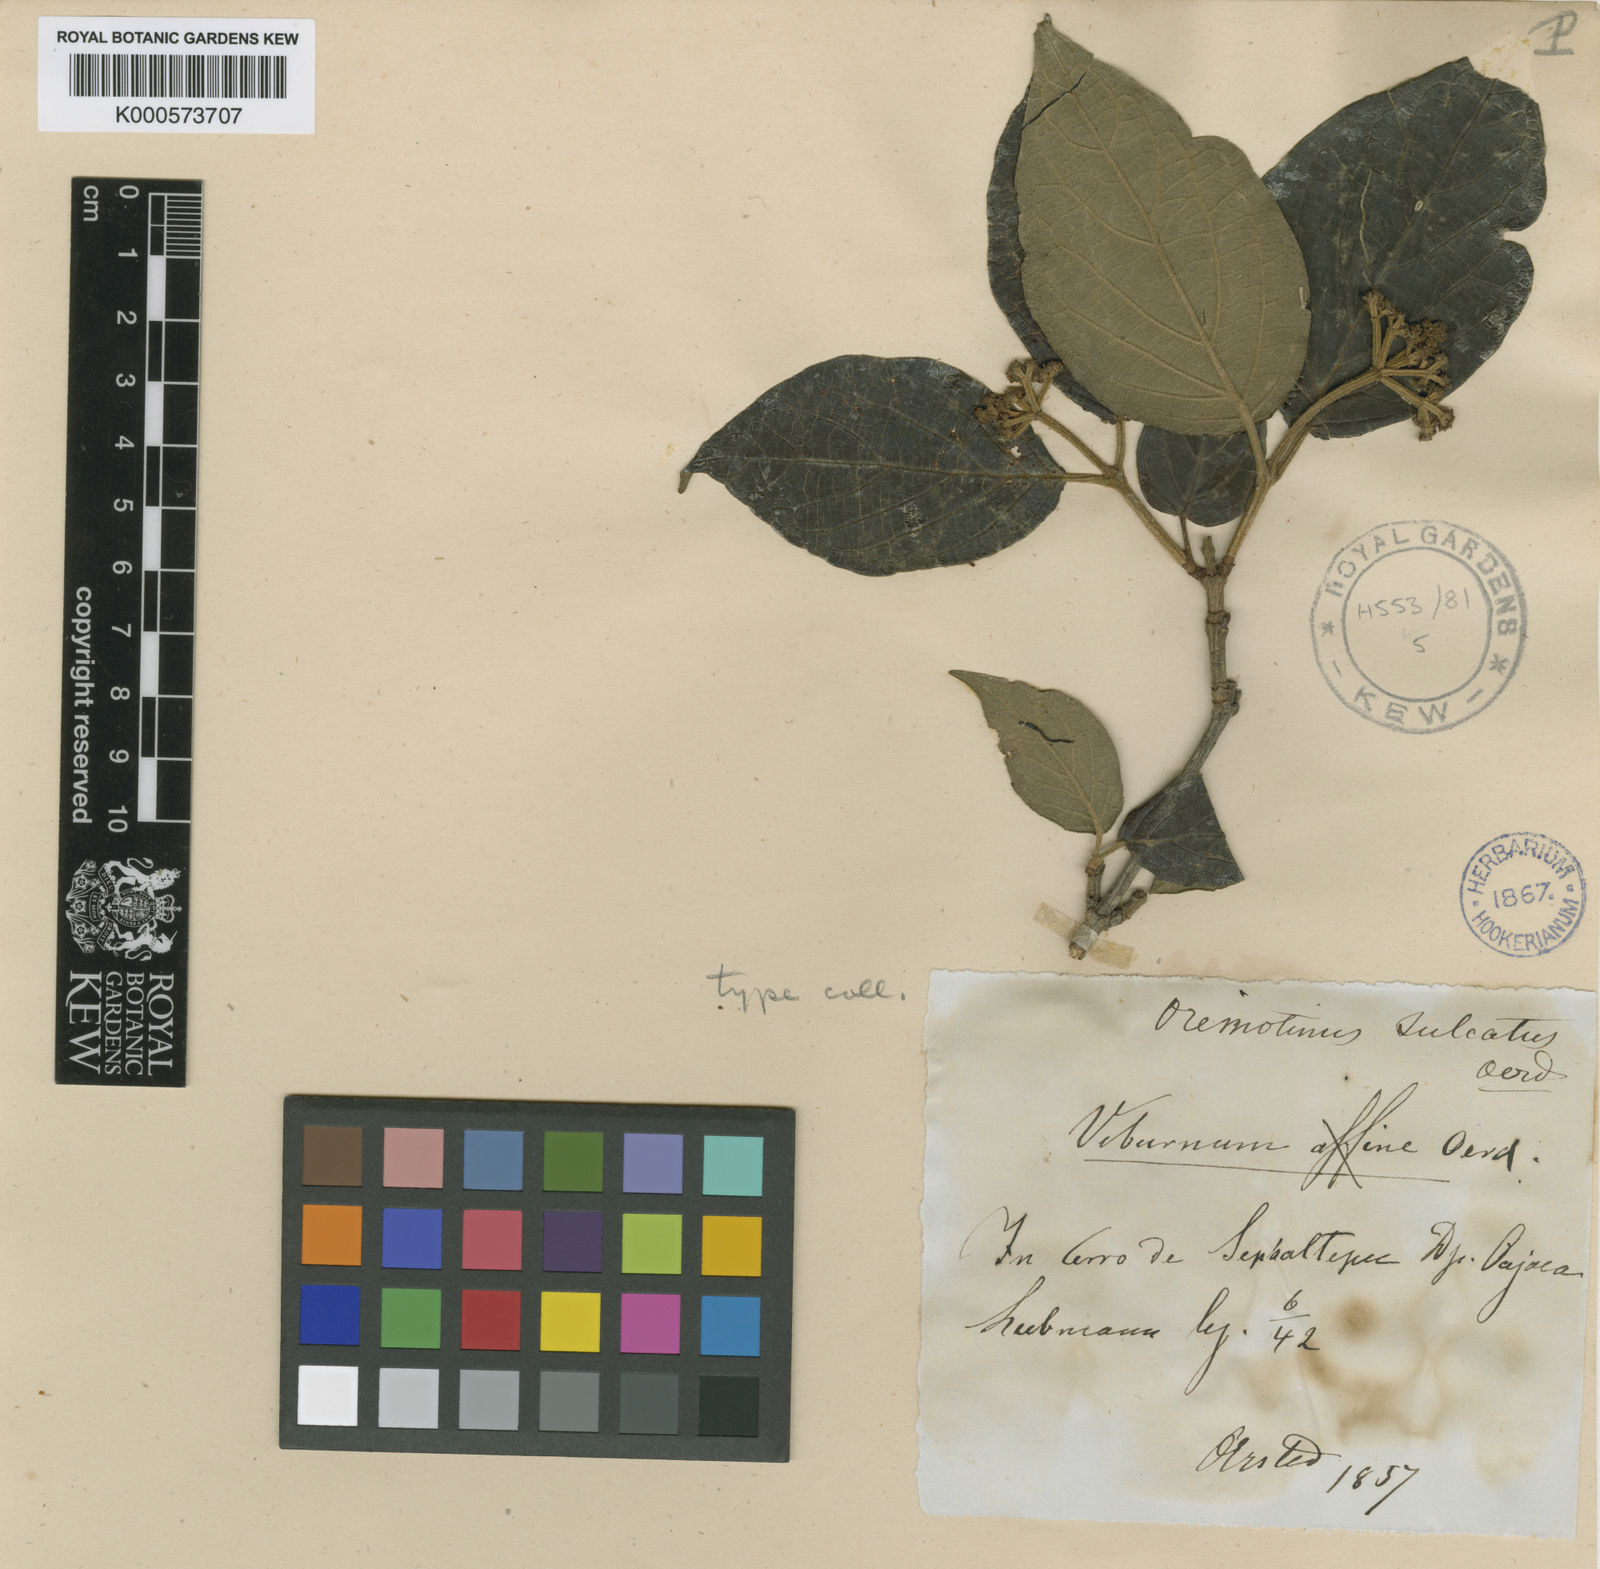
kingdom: Plantae
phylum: Tracheophyta
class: Magnoliopsida
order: Dipsacales
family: Viburnaceae
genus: Viburnum
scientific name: Viburnum sulcatum
